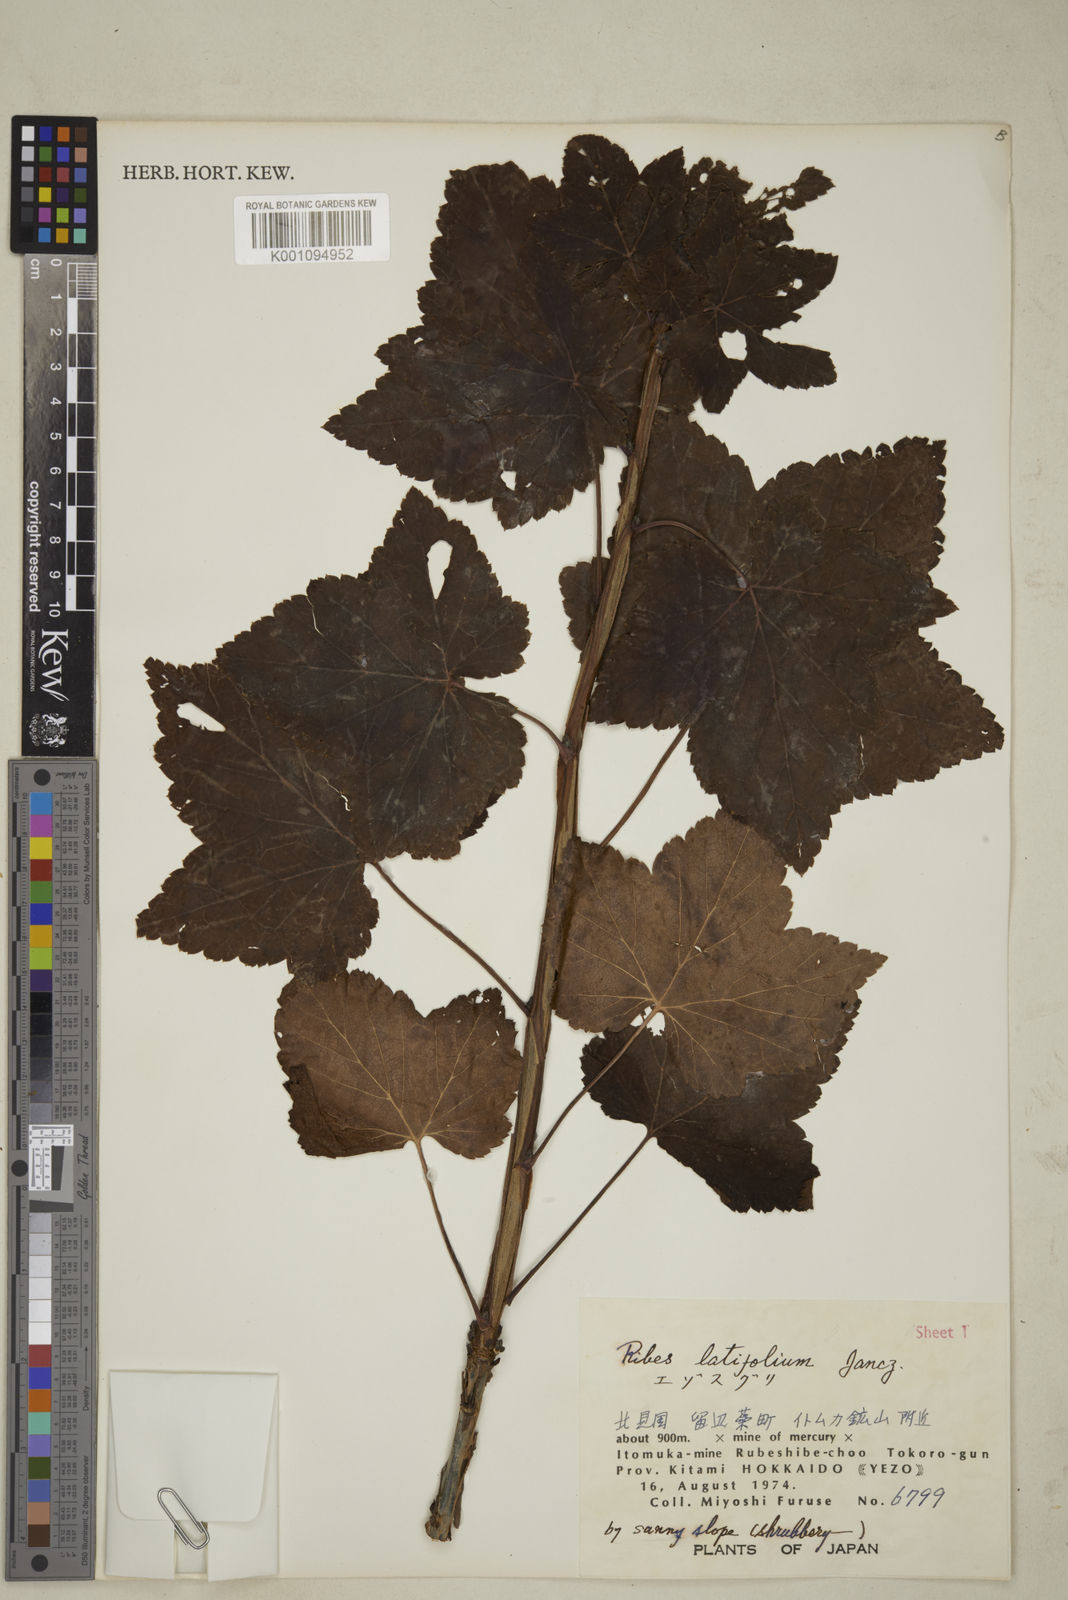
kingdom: Plantae
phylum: Tracheophyta
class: Magnoliopsida
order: Saxifragales
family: Grossulariaceae
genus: Ribes
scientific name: Ribes latifolium
